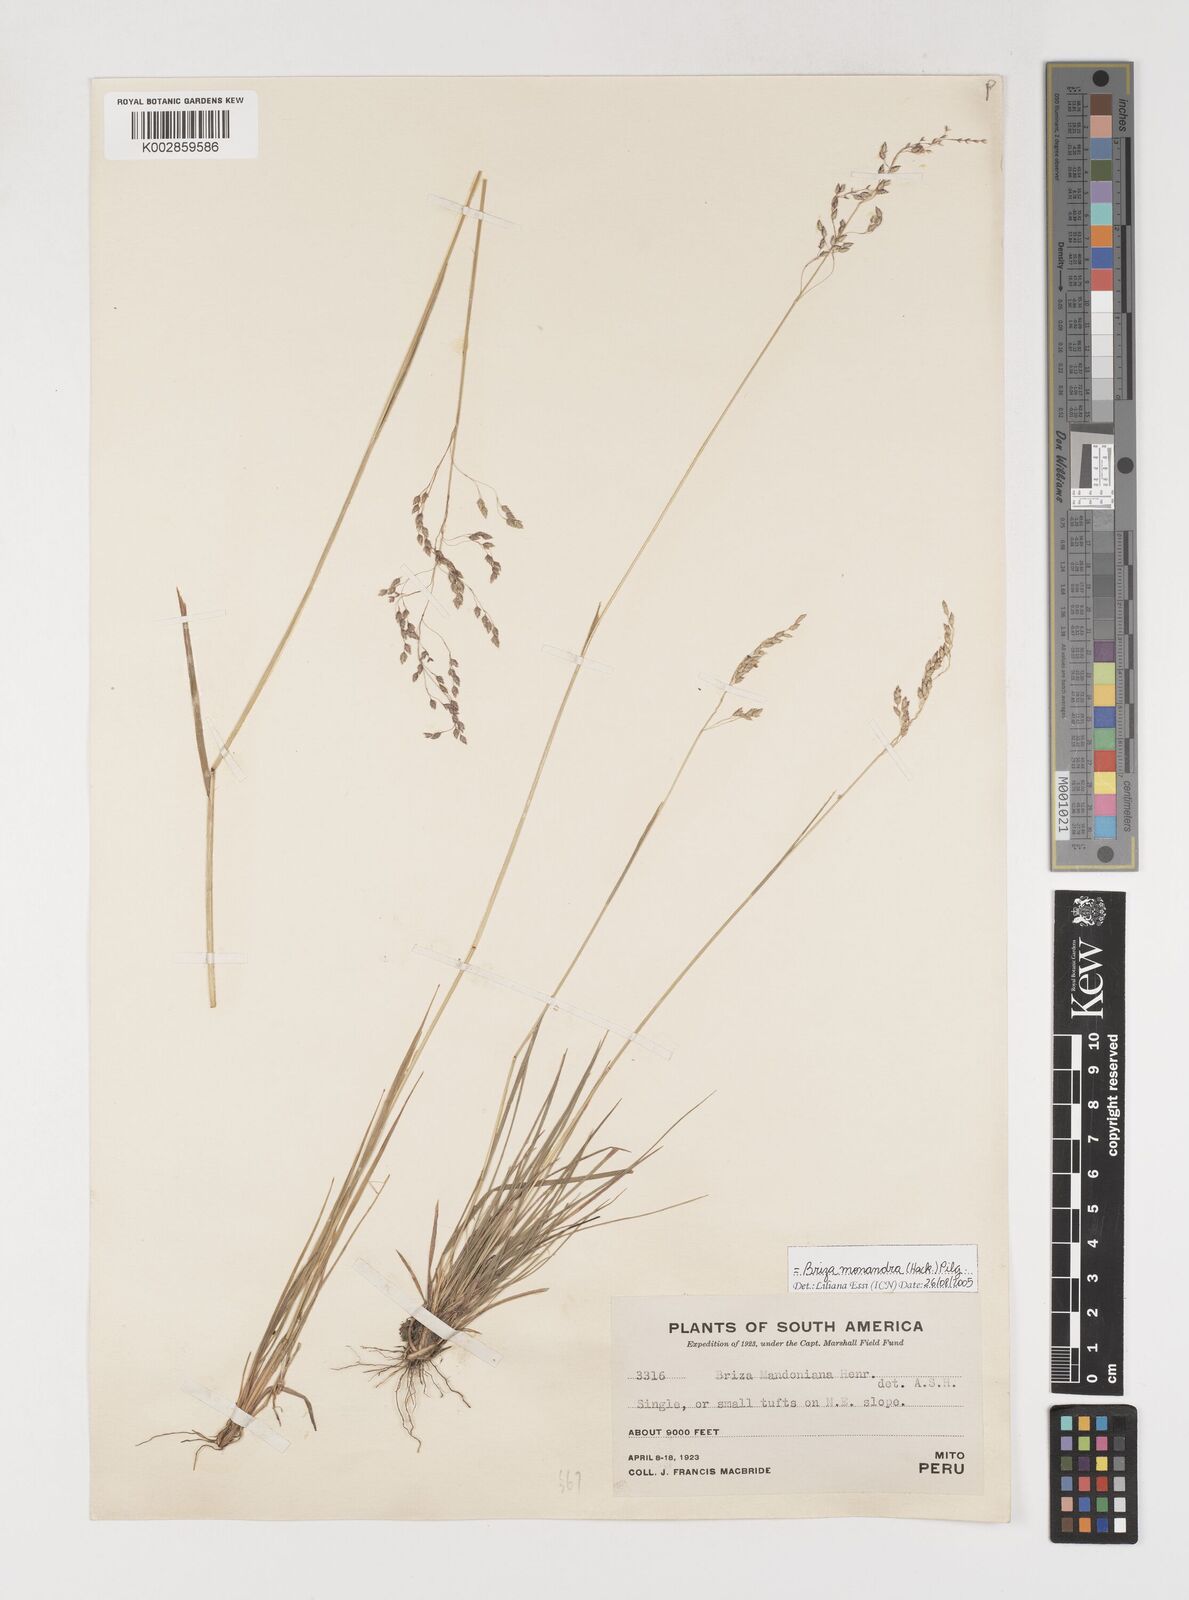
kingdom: Plantae
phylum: Tracheophyta
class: Liliopsida
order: Poales
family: Poaceae
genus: Poidium
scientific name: Poidium monandrum
